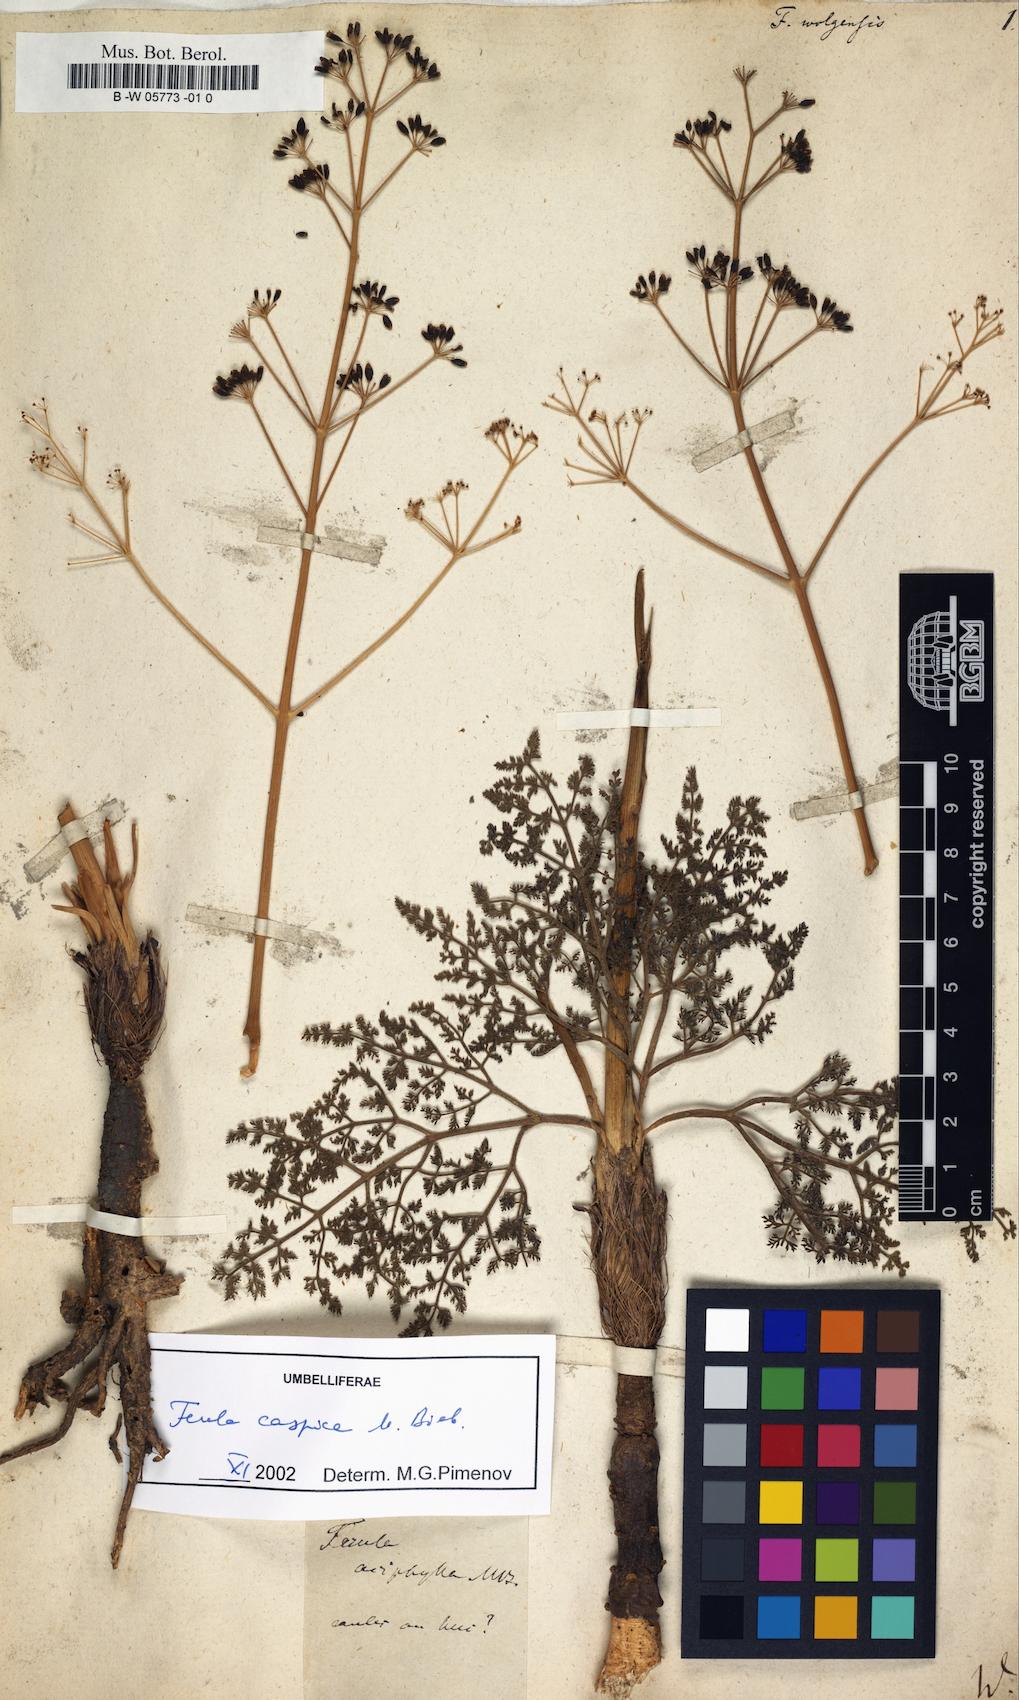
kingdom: Plantae
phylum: Tracheophyta
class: Magnoliopsida
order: Apiales
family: Apiaceae
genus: Ferula
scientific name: Ferula nuda
